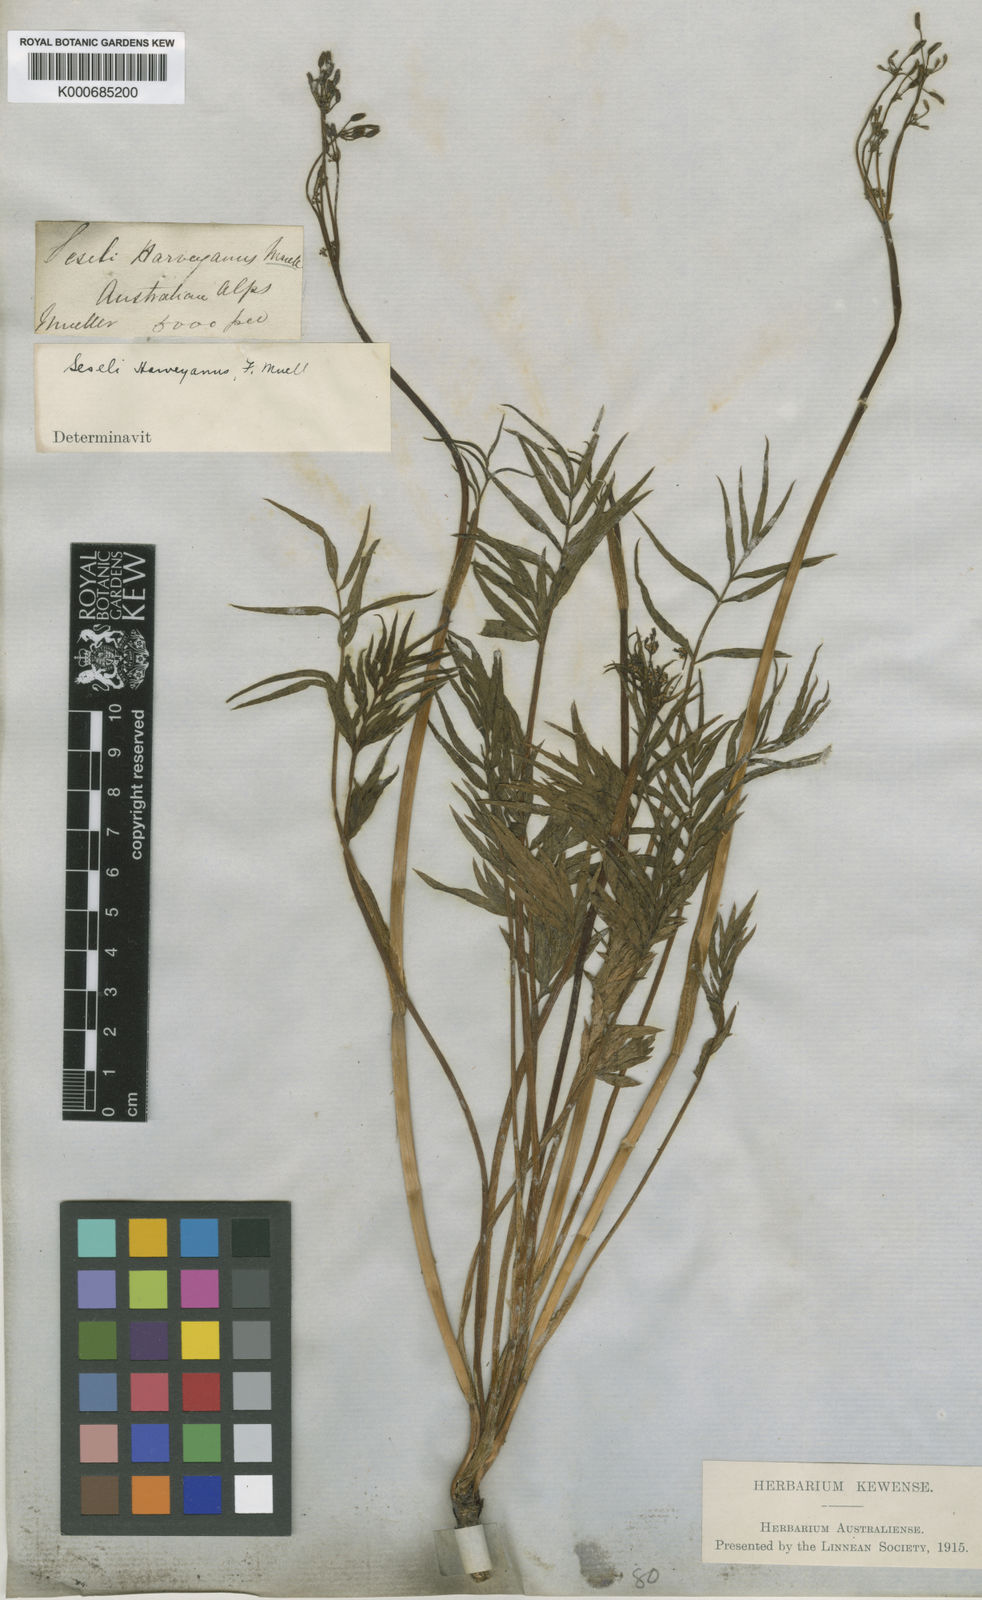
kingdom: Plantae
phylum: Tracheophyta
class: Magnoliopsida
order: Apiales
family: Apiaceae
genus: Gingidia
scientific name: Gingidia harveyana
